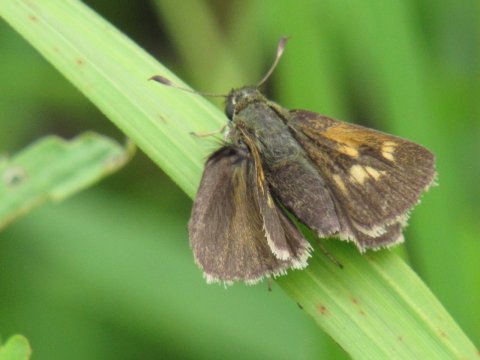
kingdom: Animalia
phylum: Arthropoda
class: Insecta
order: Lepidoptera
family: Hesperiidae
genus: Polites
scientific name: Polites themistocles
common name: Tawny-edged Skipper
